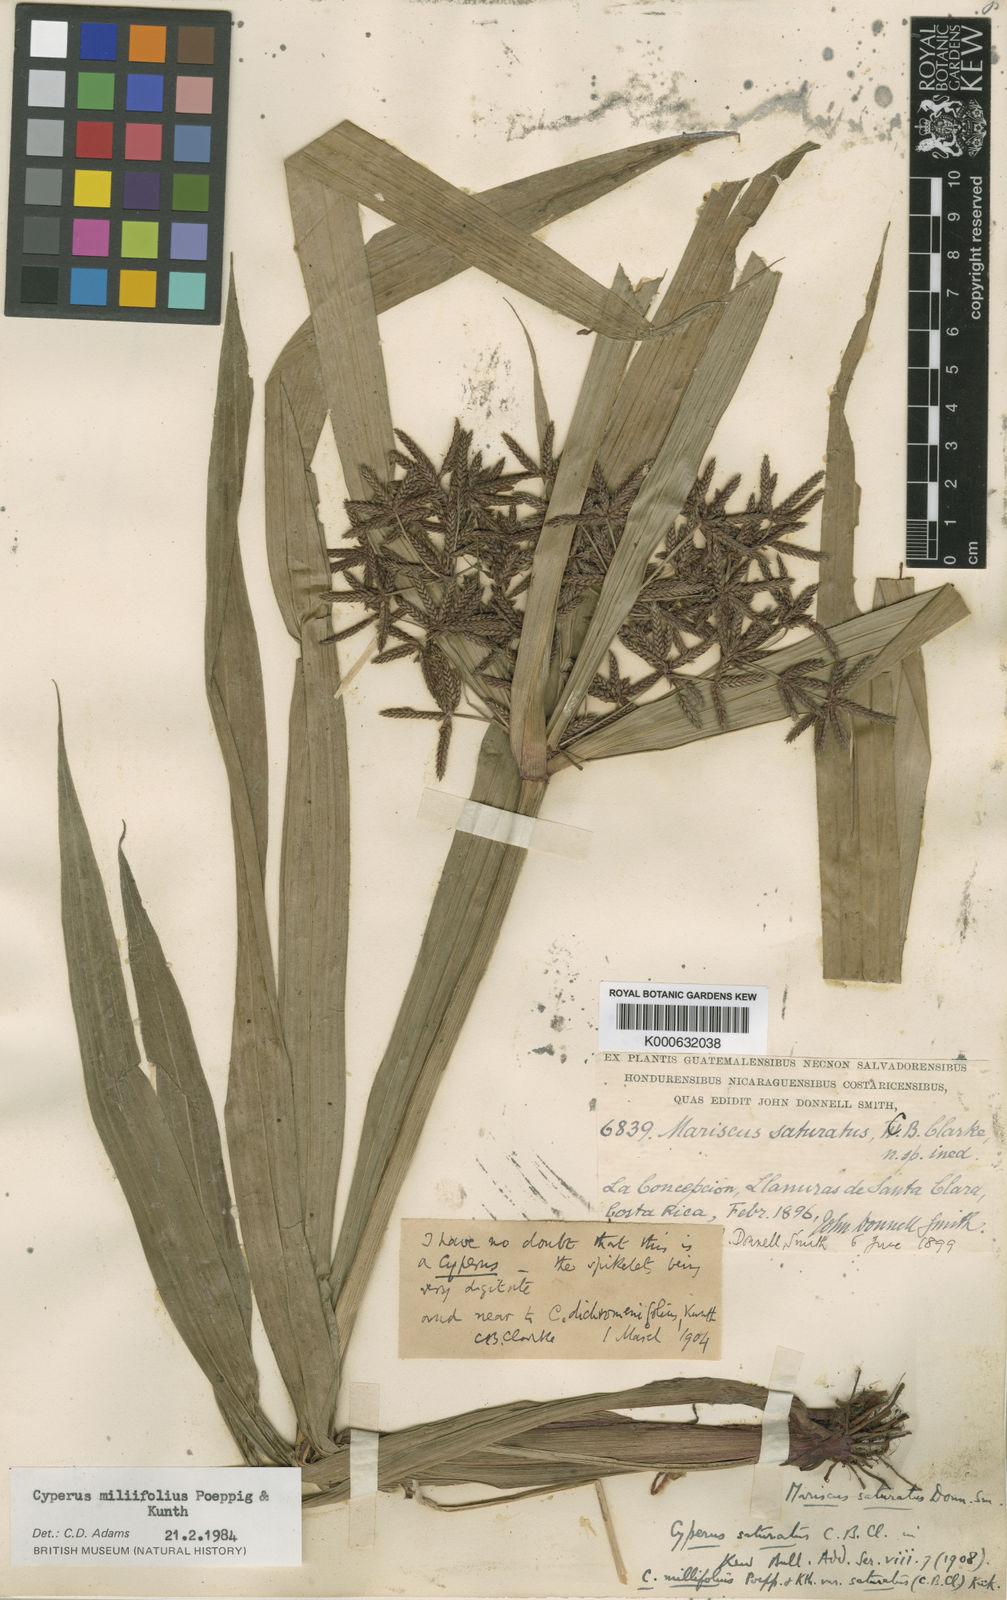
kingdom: Plantae
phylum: Tracheophyta
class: Liliopsida
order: Poales
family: Cyperaceae
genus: Cyperus
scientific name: Cyperus miliifolius
